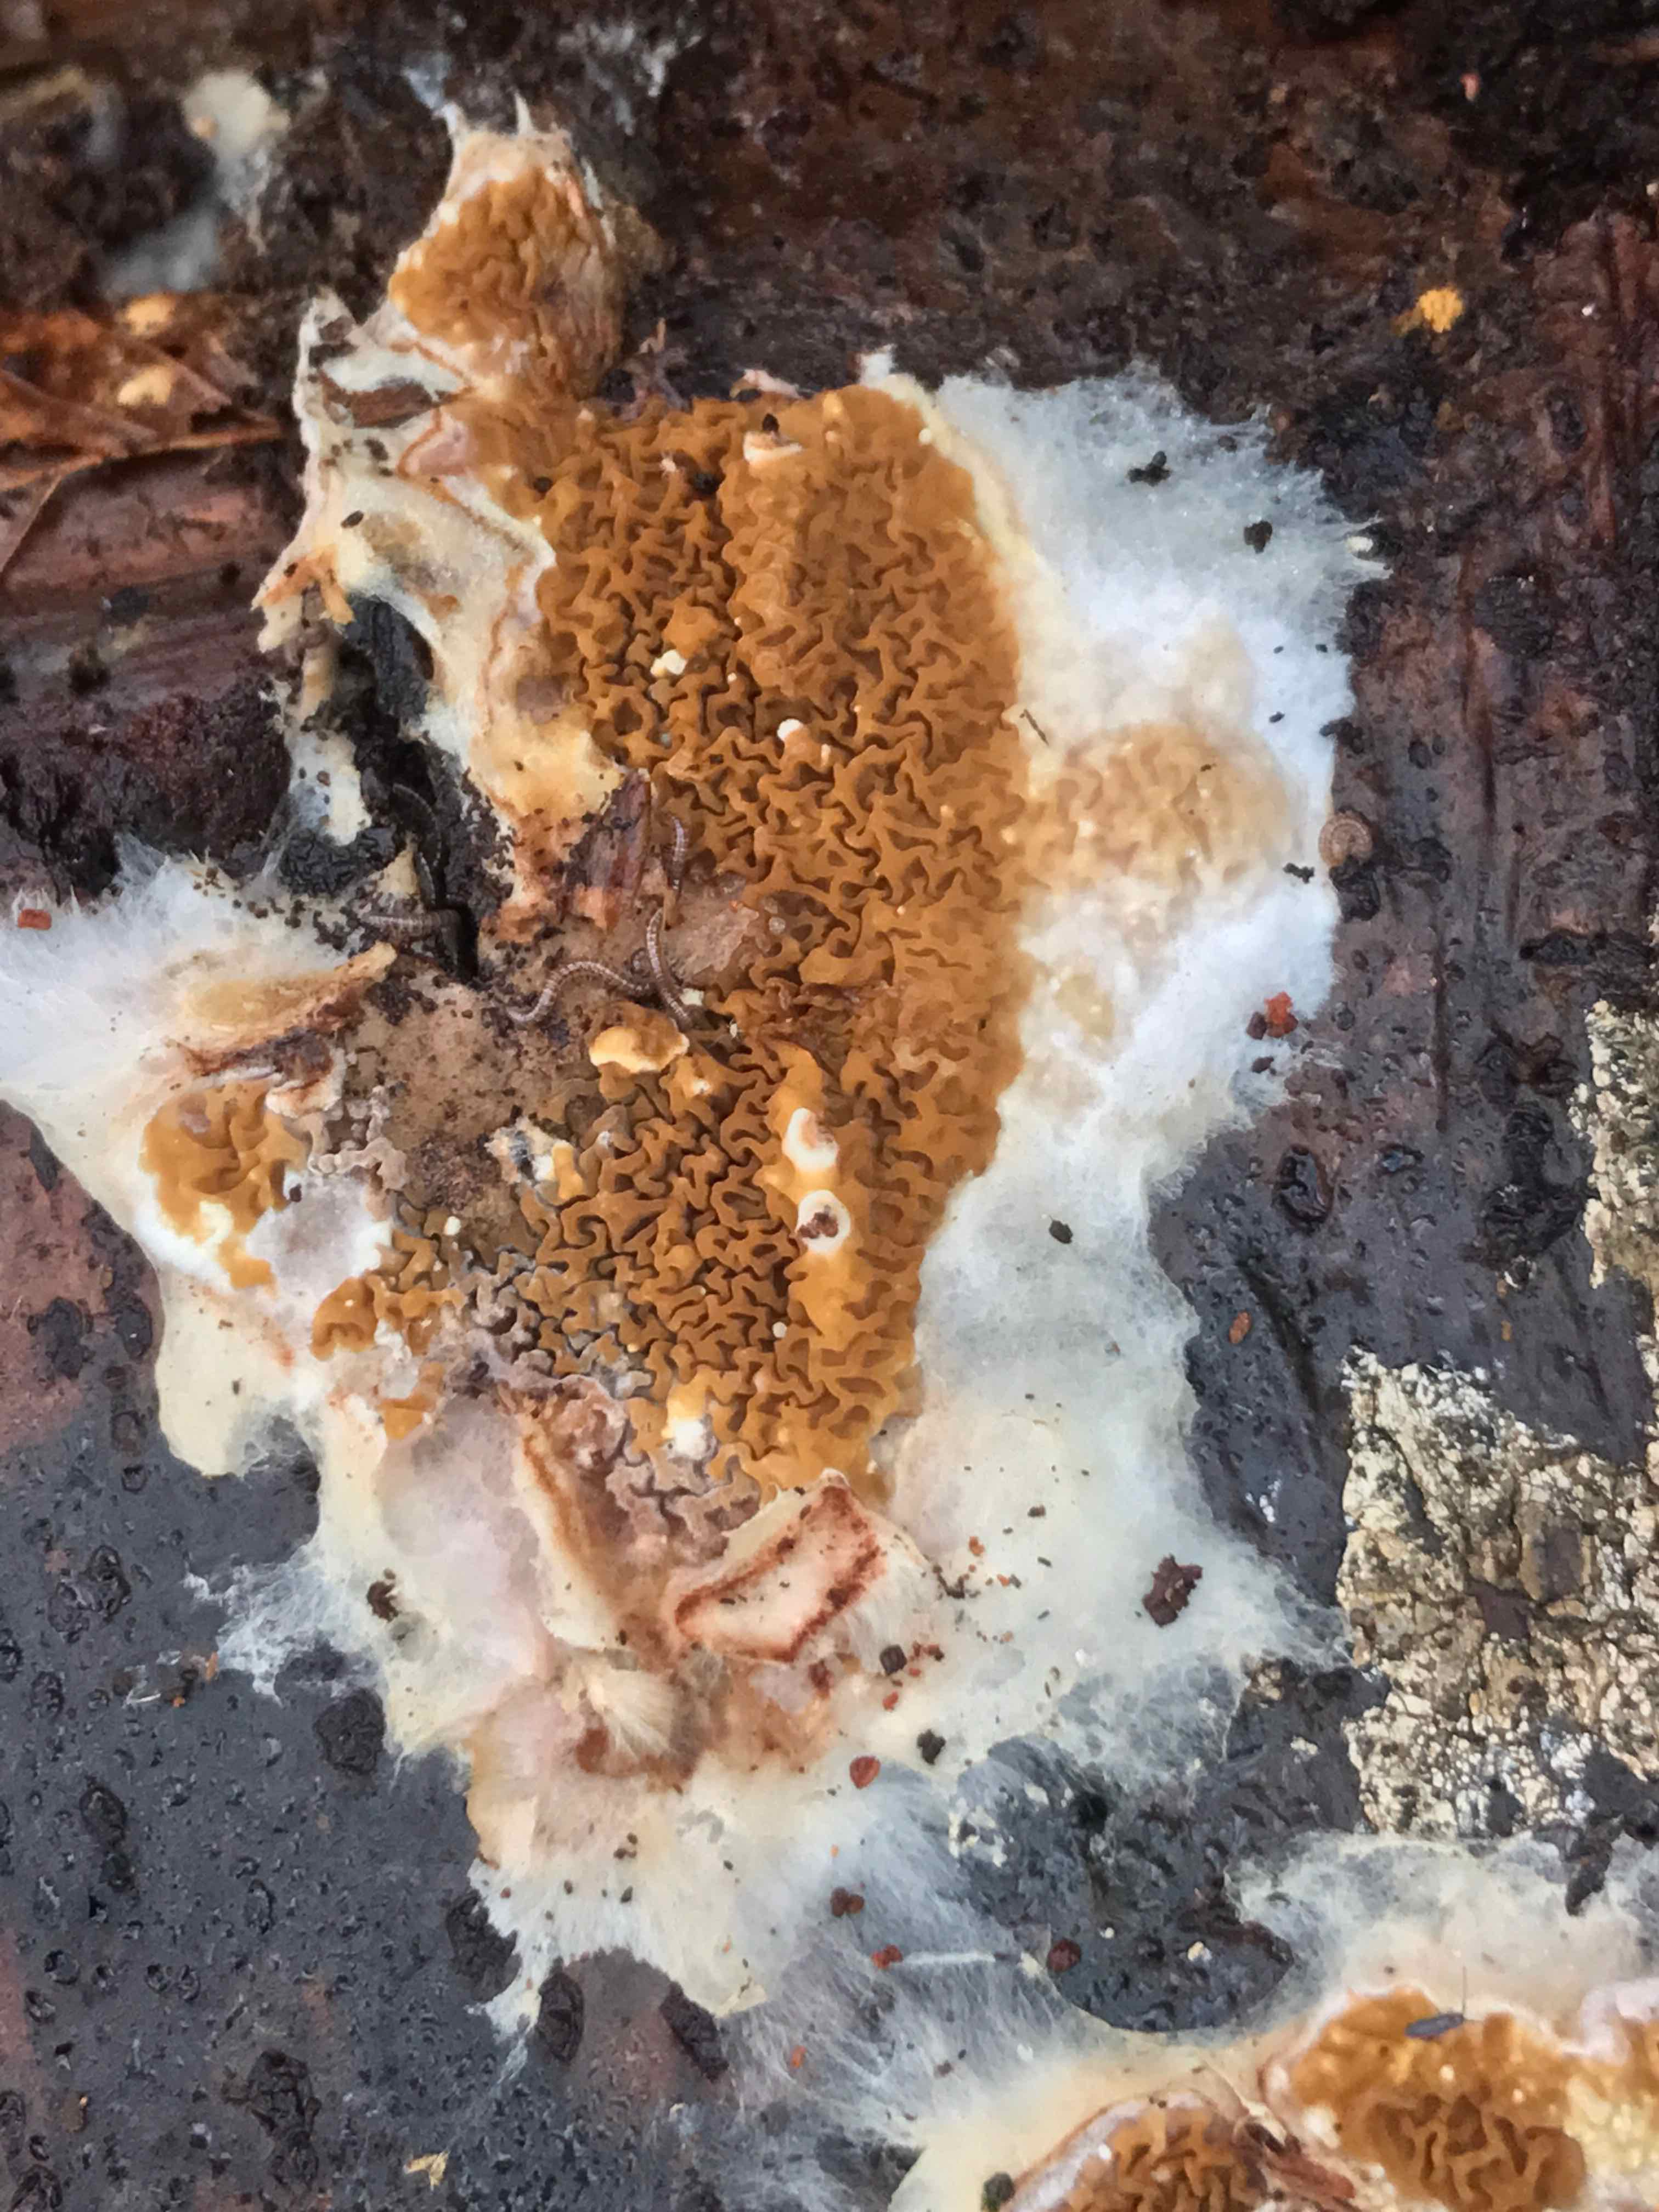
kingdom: Fungi
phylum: Basidiomycota
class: Agaricomycetes
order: Boletales
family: Serpulaceae
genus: Serpula
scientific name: Serpula himantioides
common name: tyndkødet hussvamp
